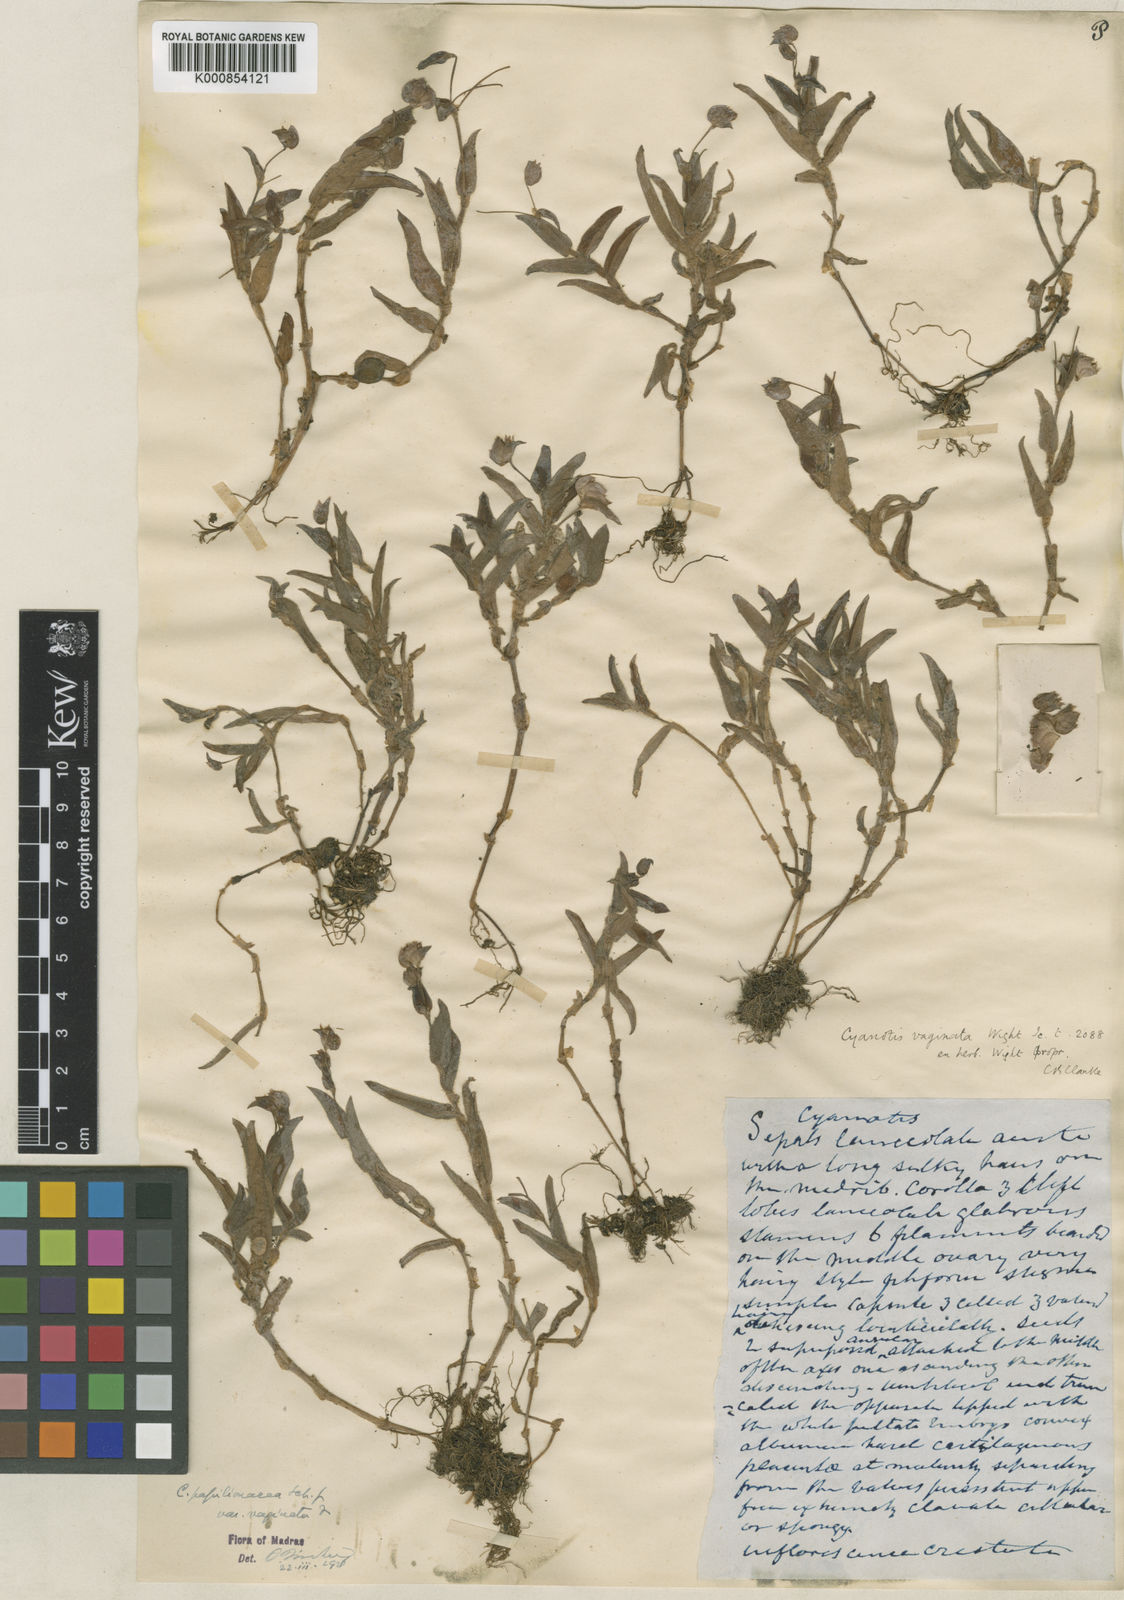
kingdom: Plantae
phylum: Tracheophyta
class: Liliopsida
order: Commelinales
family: Commelinaceae
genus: Cyanotis
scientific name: Cyanotis burmanniana
